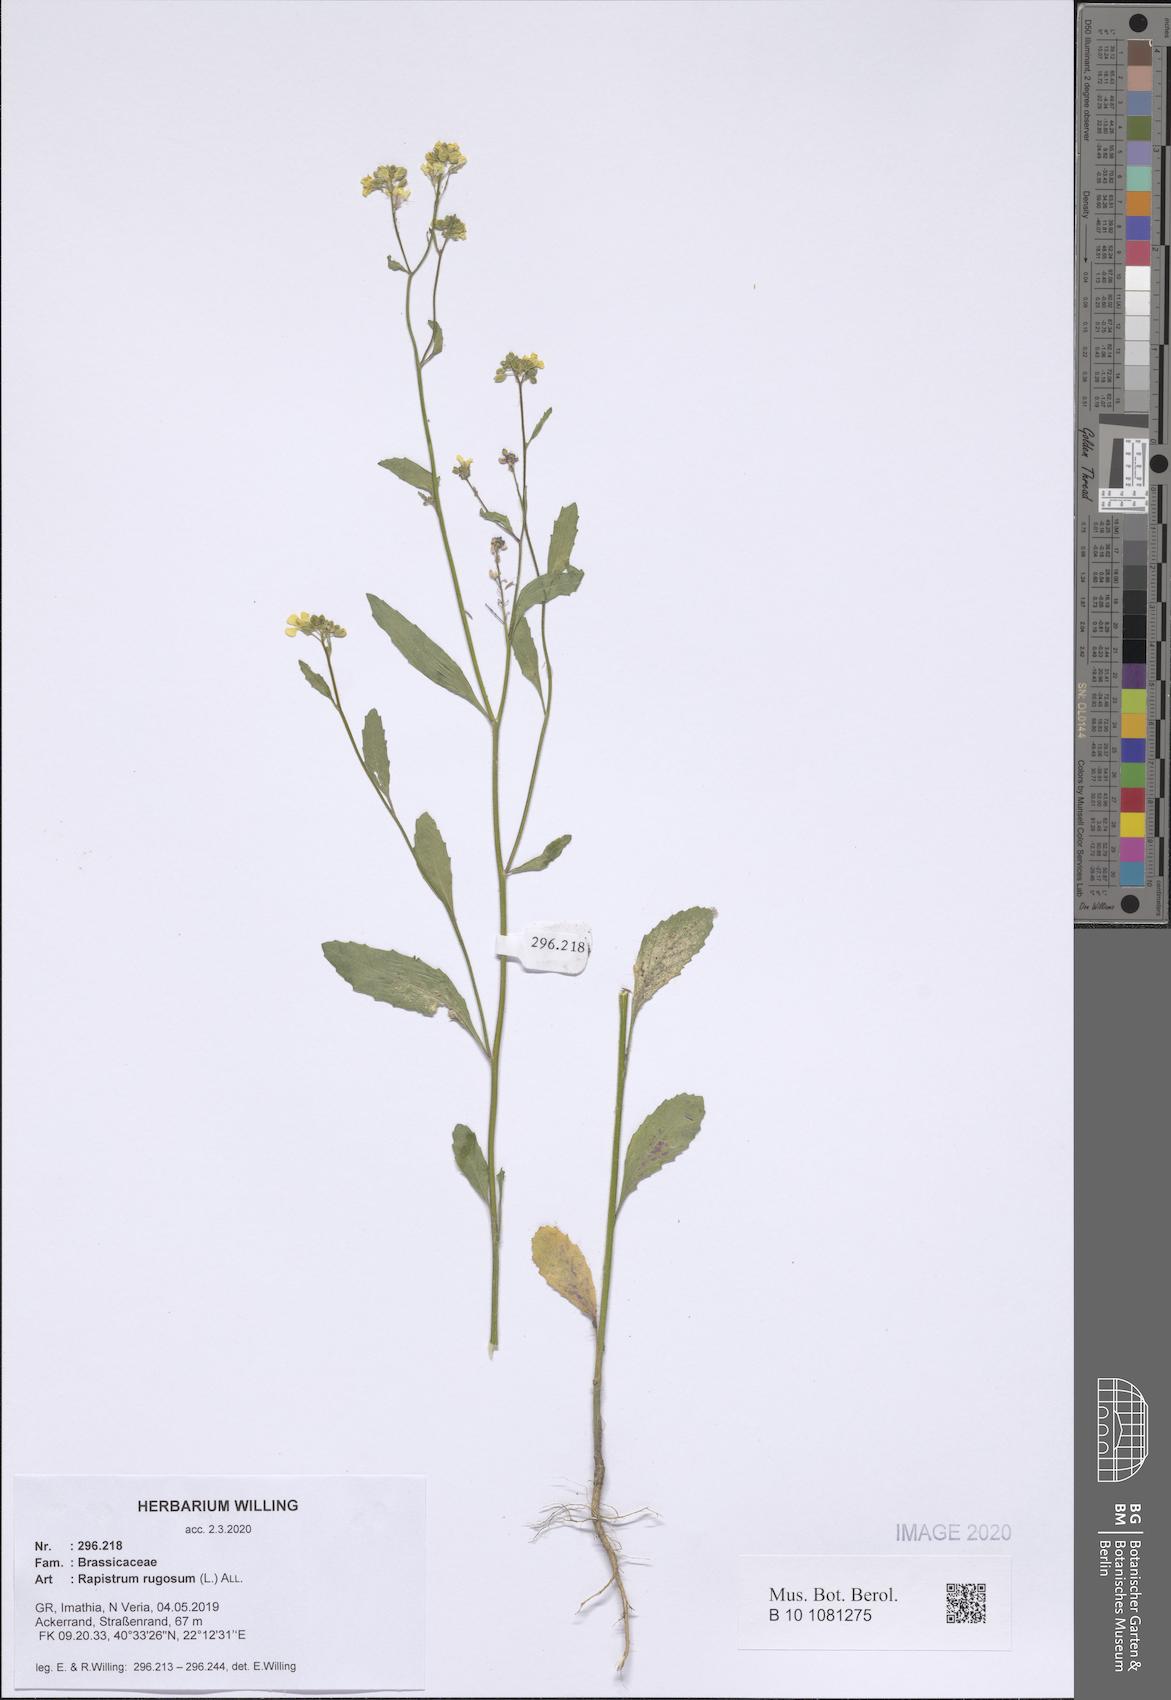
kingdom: Plantae
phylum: Tracheophyta
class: Magnoliopsida
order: Brassicales
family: Brassicaceae
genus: Rapistrum
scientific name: Rapistrum rugosum
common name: Annual bastardcabbage
